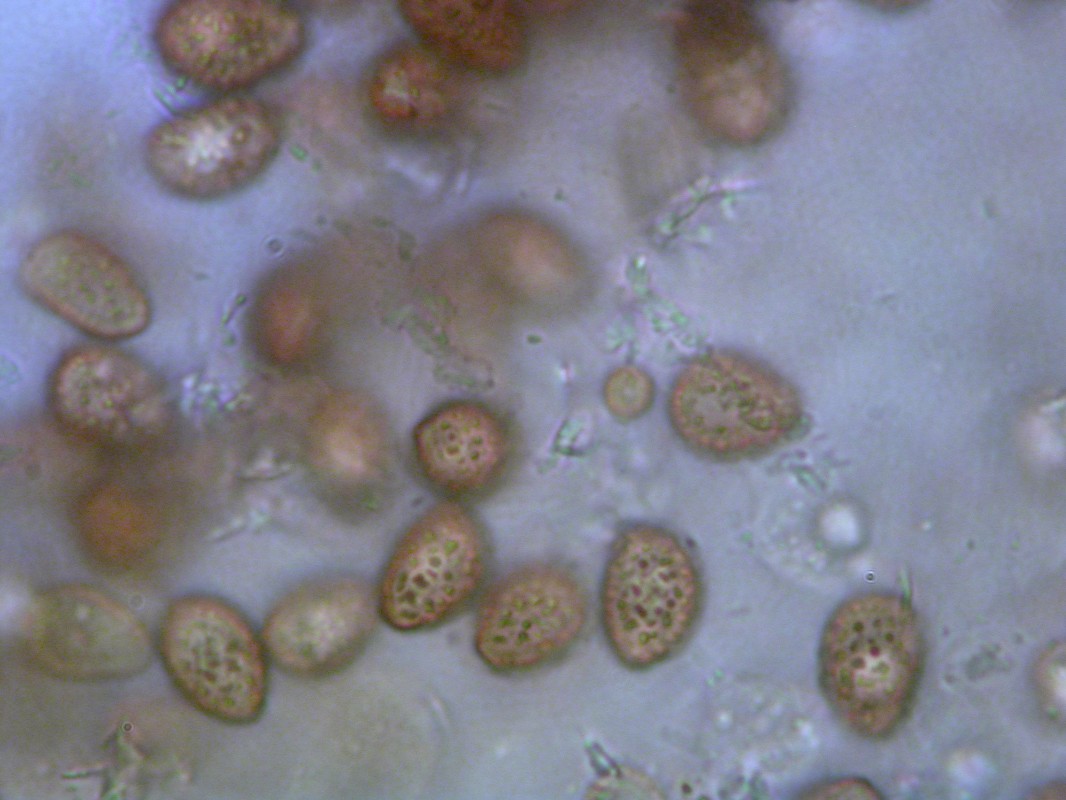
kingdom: Fungi
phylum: Basidiomycota
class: Agaricomycetes
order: Agaricales
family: Hymenogastraceae
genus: Gymnopilus
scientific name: Gymnopilus picreus
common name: puklet flammehat
